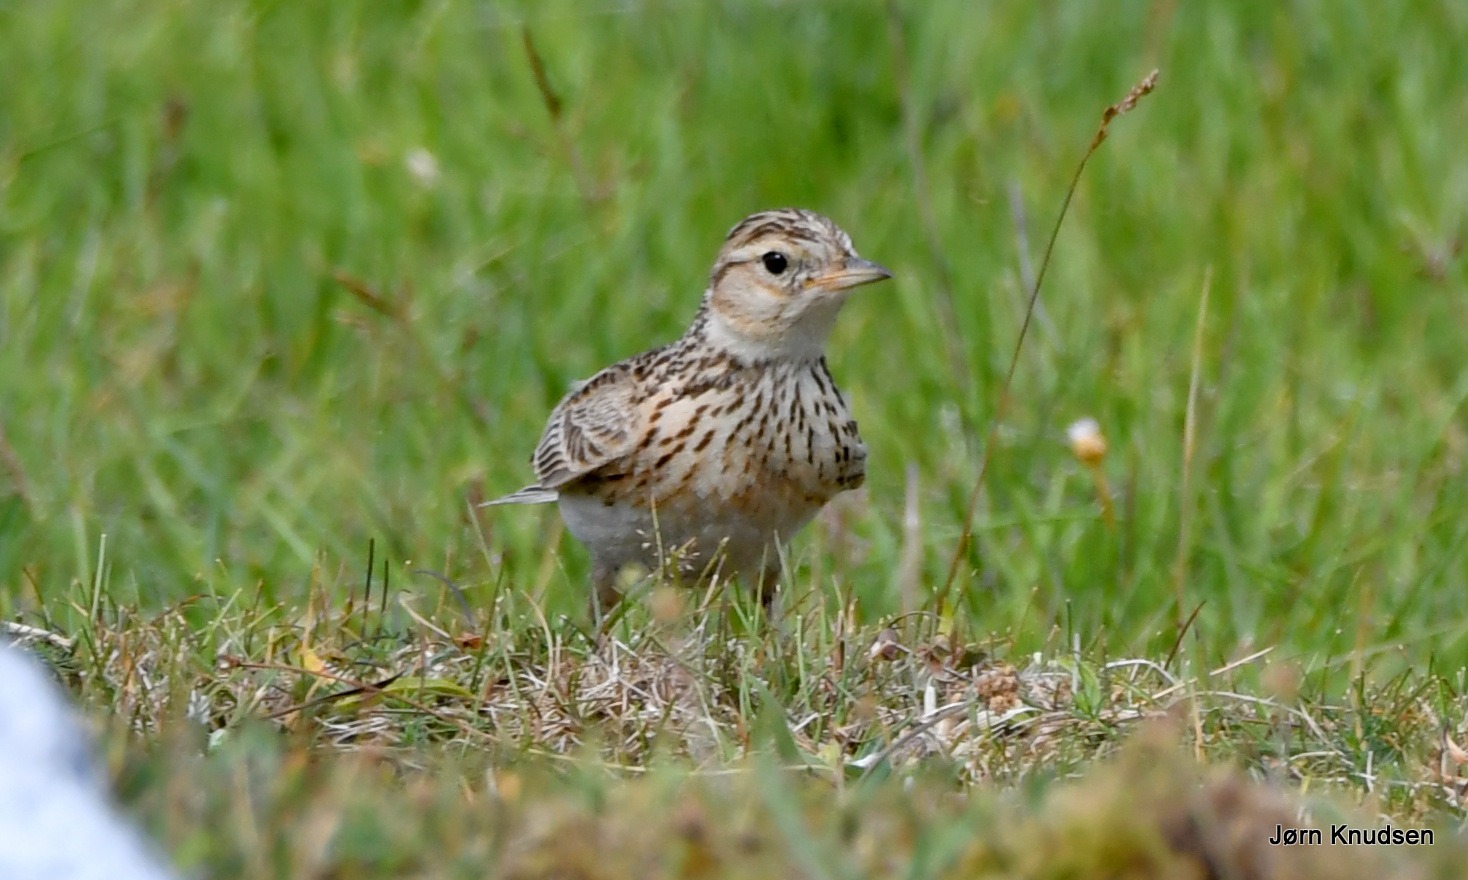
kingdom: Animalia
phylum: Chordata
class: Aves
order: Passeriformes
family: Alaudidae
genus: Alauda
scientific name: Alauda arvensis
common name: Sanglærke
